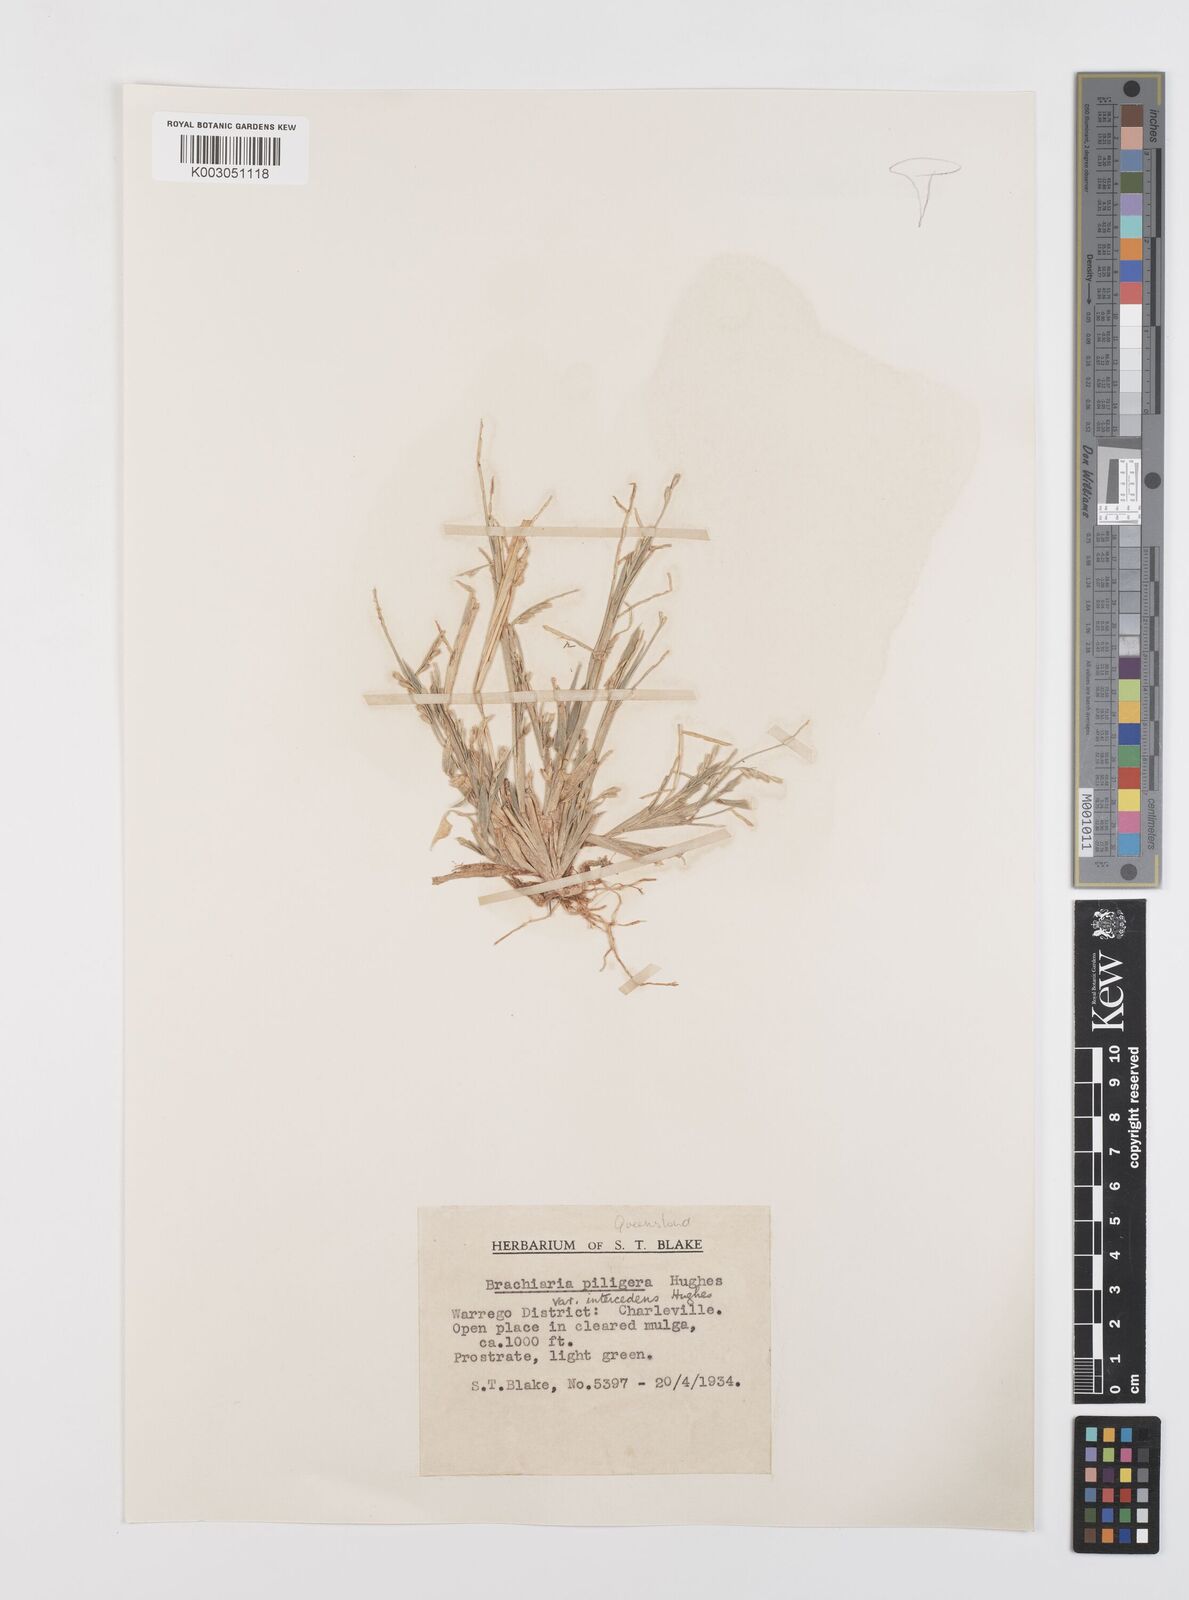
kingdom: Plantae
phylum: Tracheophyta
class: Liliopsida
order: Poales
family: Poaceae
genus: Urochloa
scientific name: Urochloa piligera
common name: Wattle signalgrass
